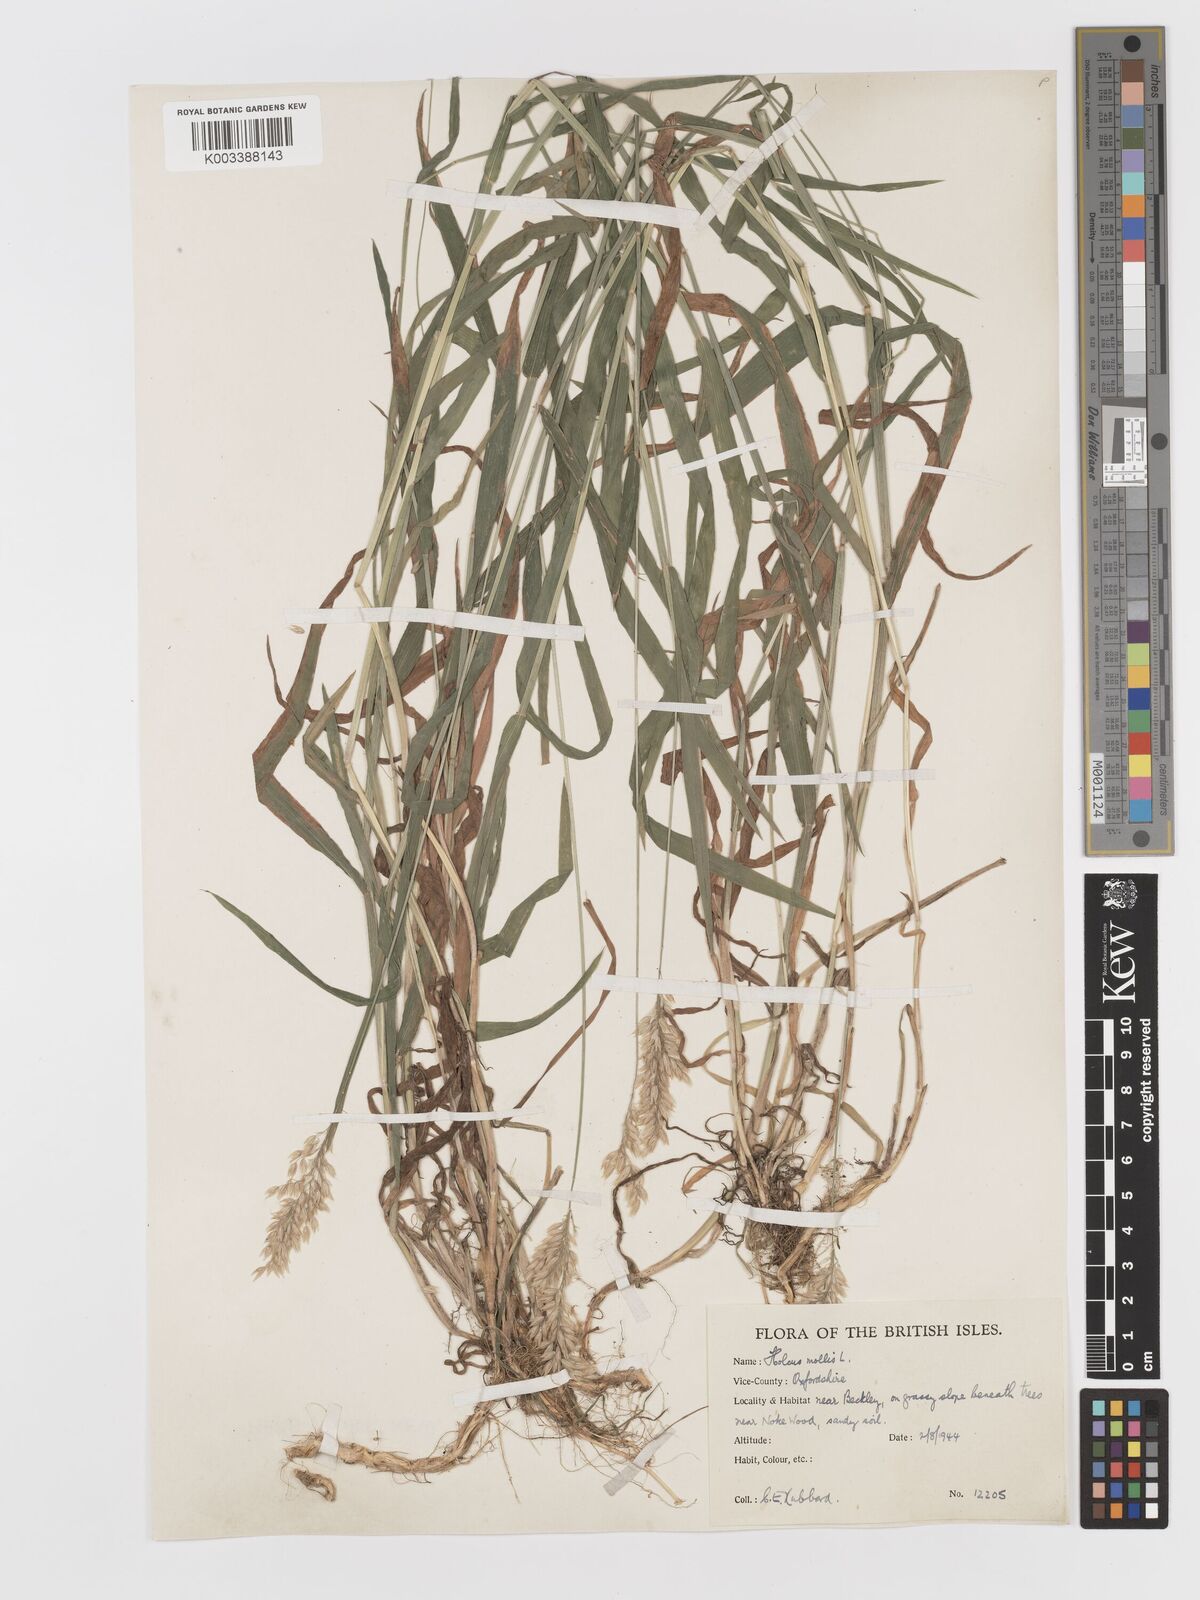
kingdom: Plantae
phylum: Tracheophyta
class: Liliopsida
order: Poales
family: Poaceae
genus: Holcus
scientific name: Holcus mollis
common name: Creeping velvetgrass
